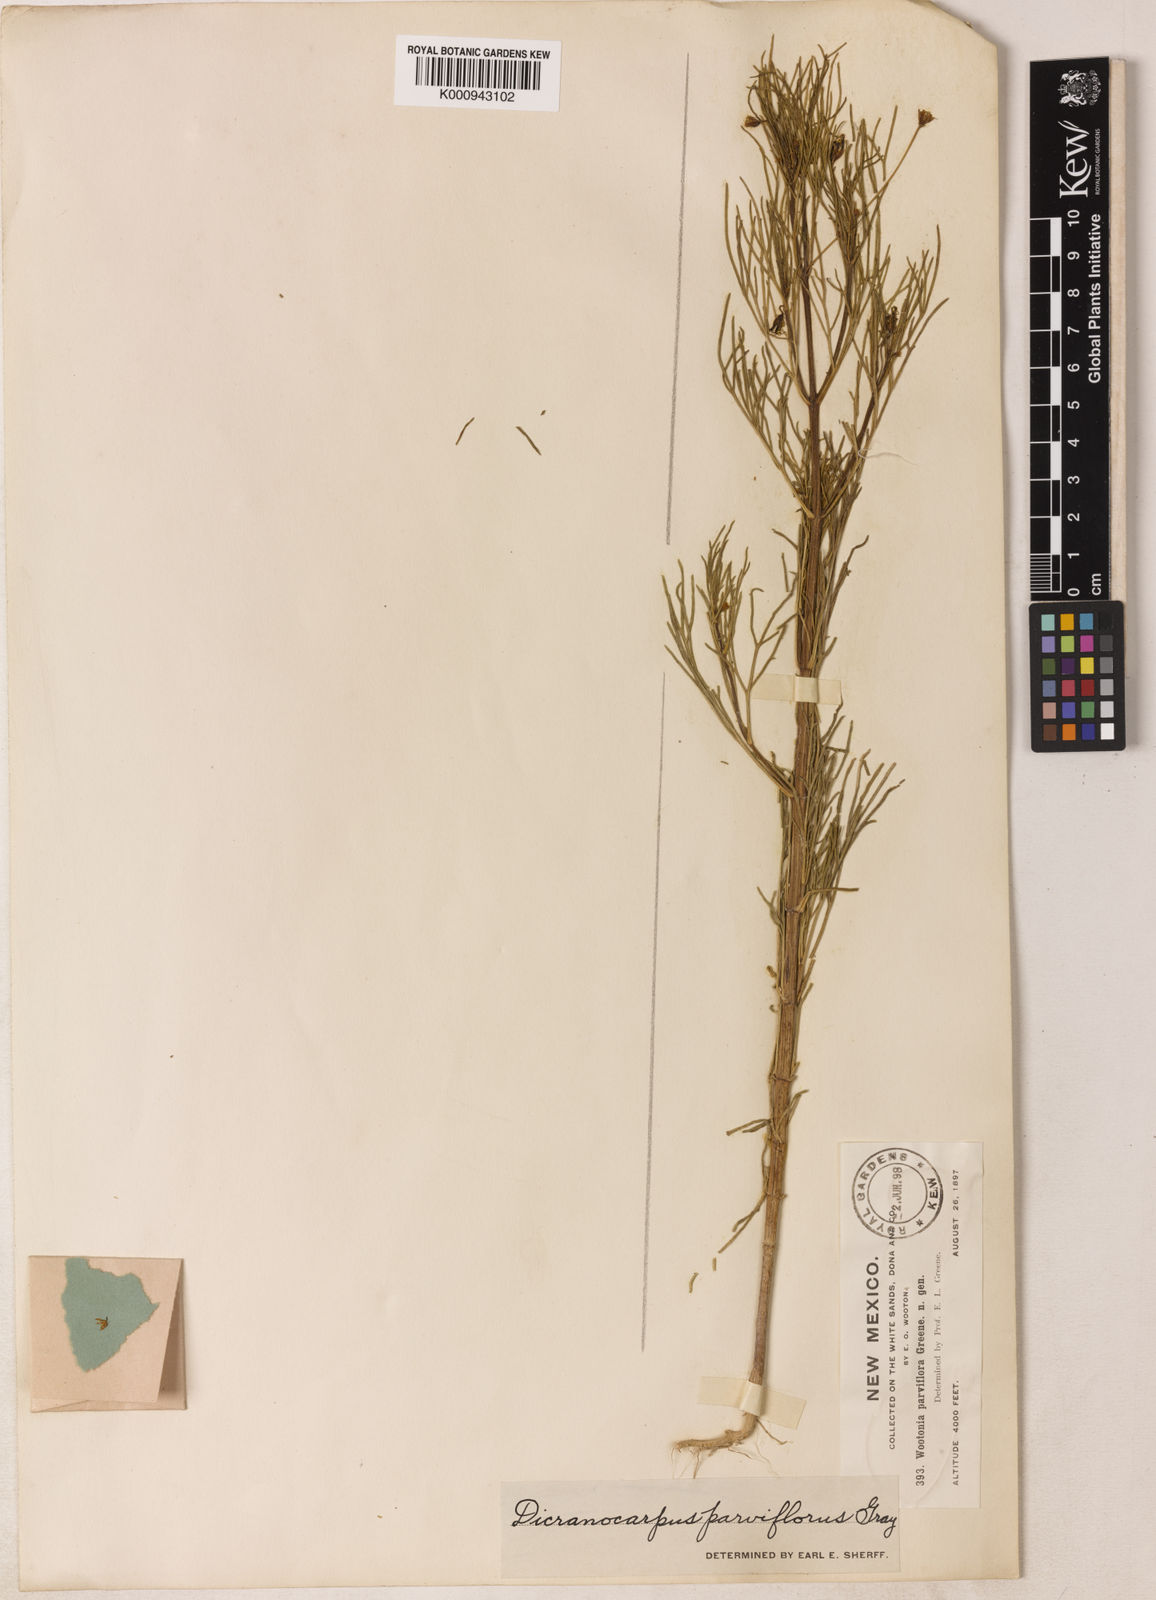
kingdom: Plantae
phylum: Tracheophyta
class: Magnoliopsida
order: Asterales
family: Asteraceae
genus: Dicranocarpus
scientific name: Dicranocarpus parviflorus
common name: Pitchfork
